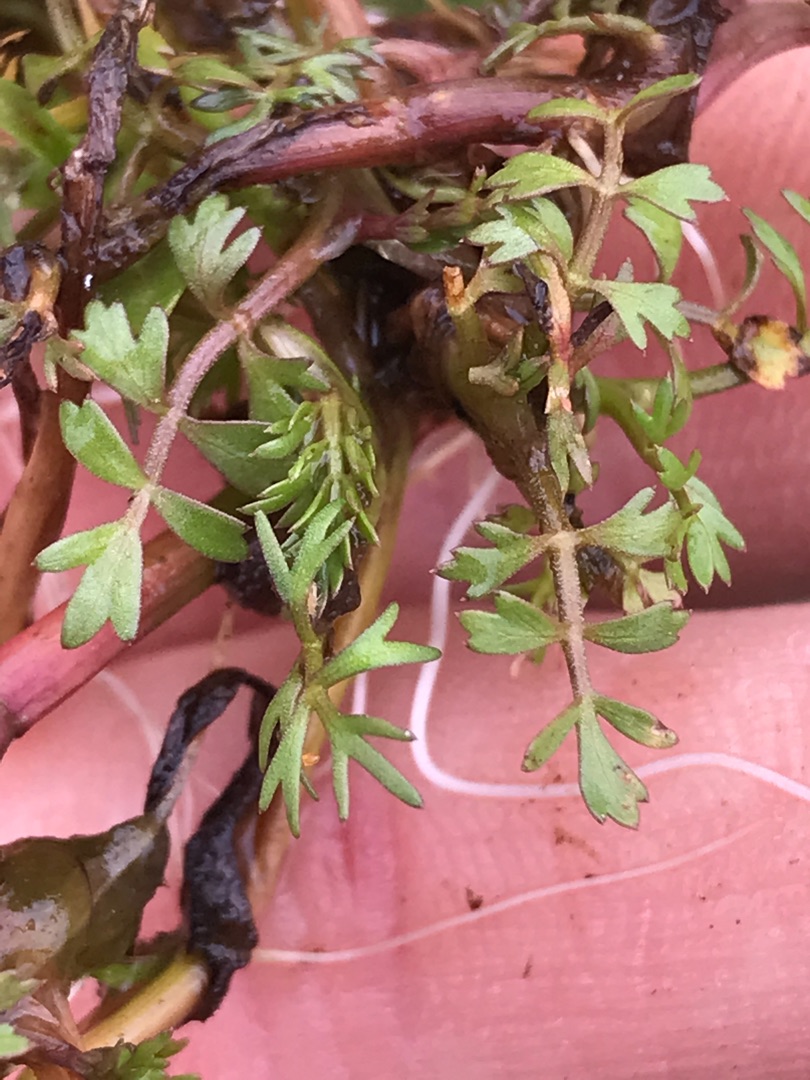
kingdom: Plantae
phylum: Tracheophyta
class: Magnoliopsida
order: Apiales
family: Apiaceae
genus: Helosciadium
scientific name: Helosciadium inundatum
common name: Svømmende sumpskærm
